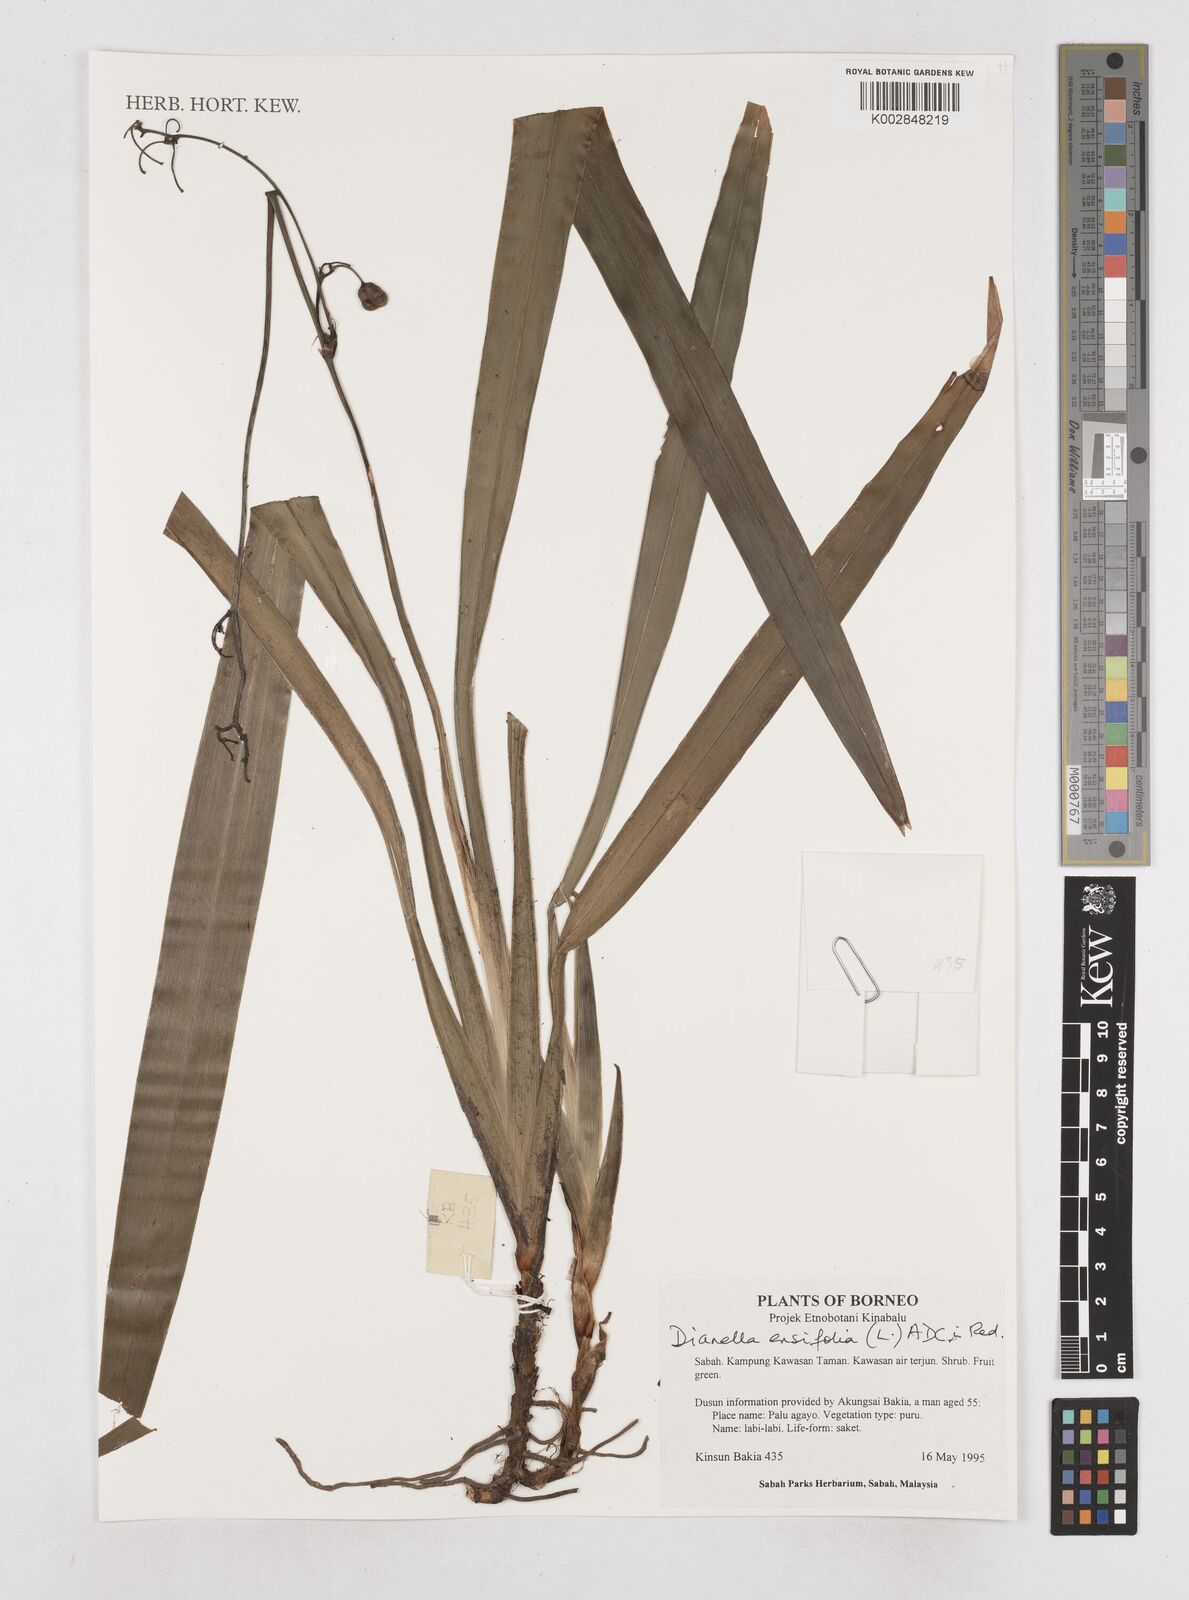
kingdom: Plantae
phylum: Tracheophyta
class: Liliopsida
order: Asparagales
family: Asphodelaceae
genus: Dianella
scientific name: Dianella ensifolia
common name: New zealand lilyplant
